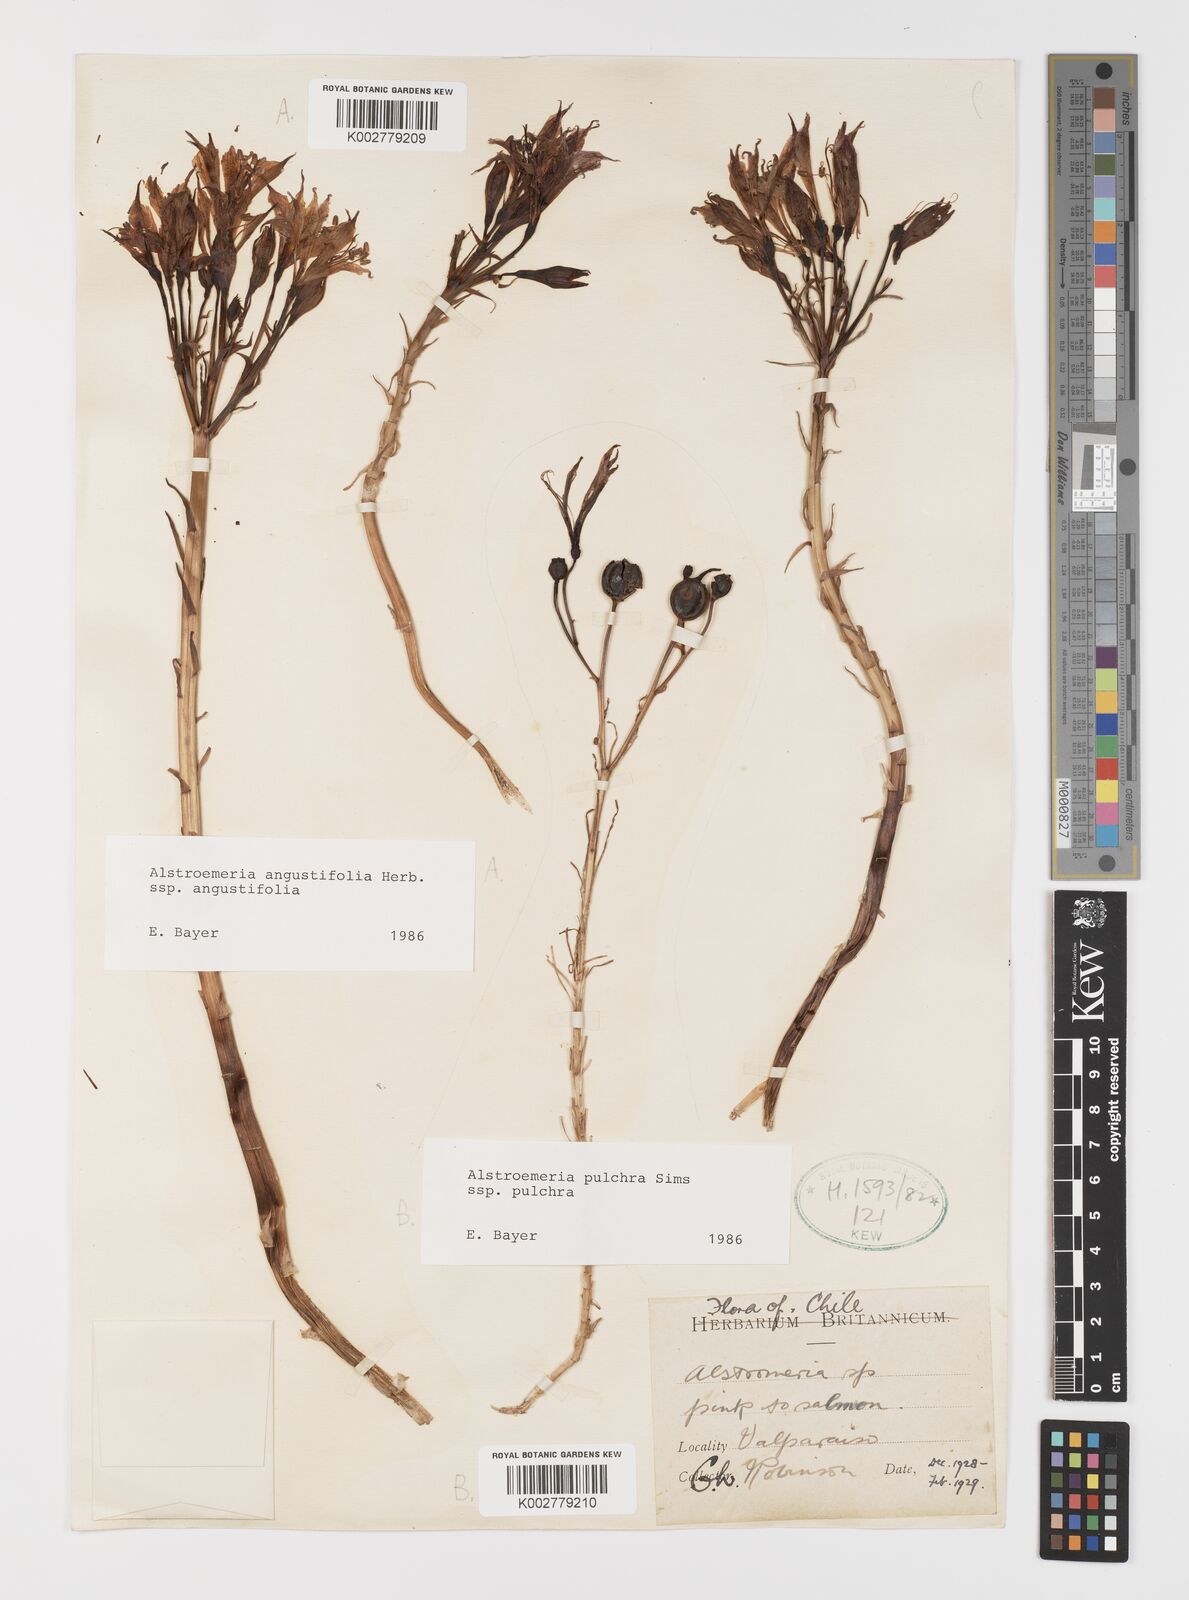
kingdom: Plantae
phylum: Tracheophyta
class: Liliopsida
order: Liliales
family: Alstroemeriaceae
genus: Alstroemeria
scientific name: Alstroemeria angustifolia
